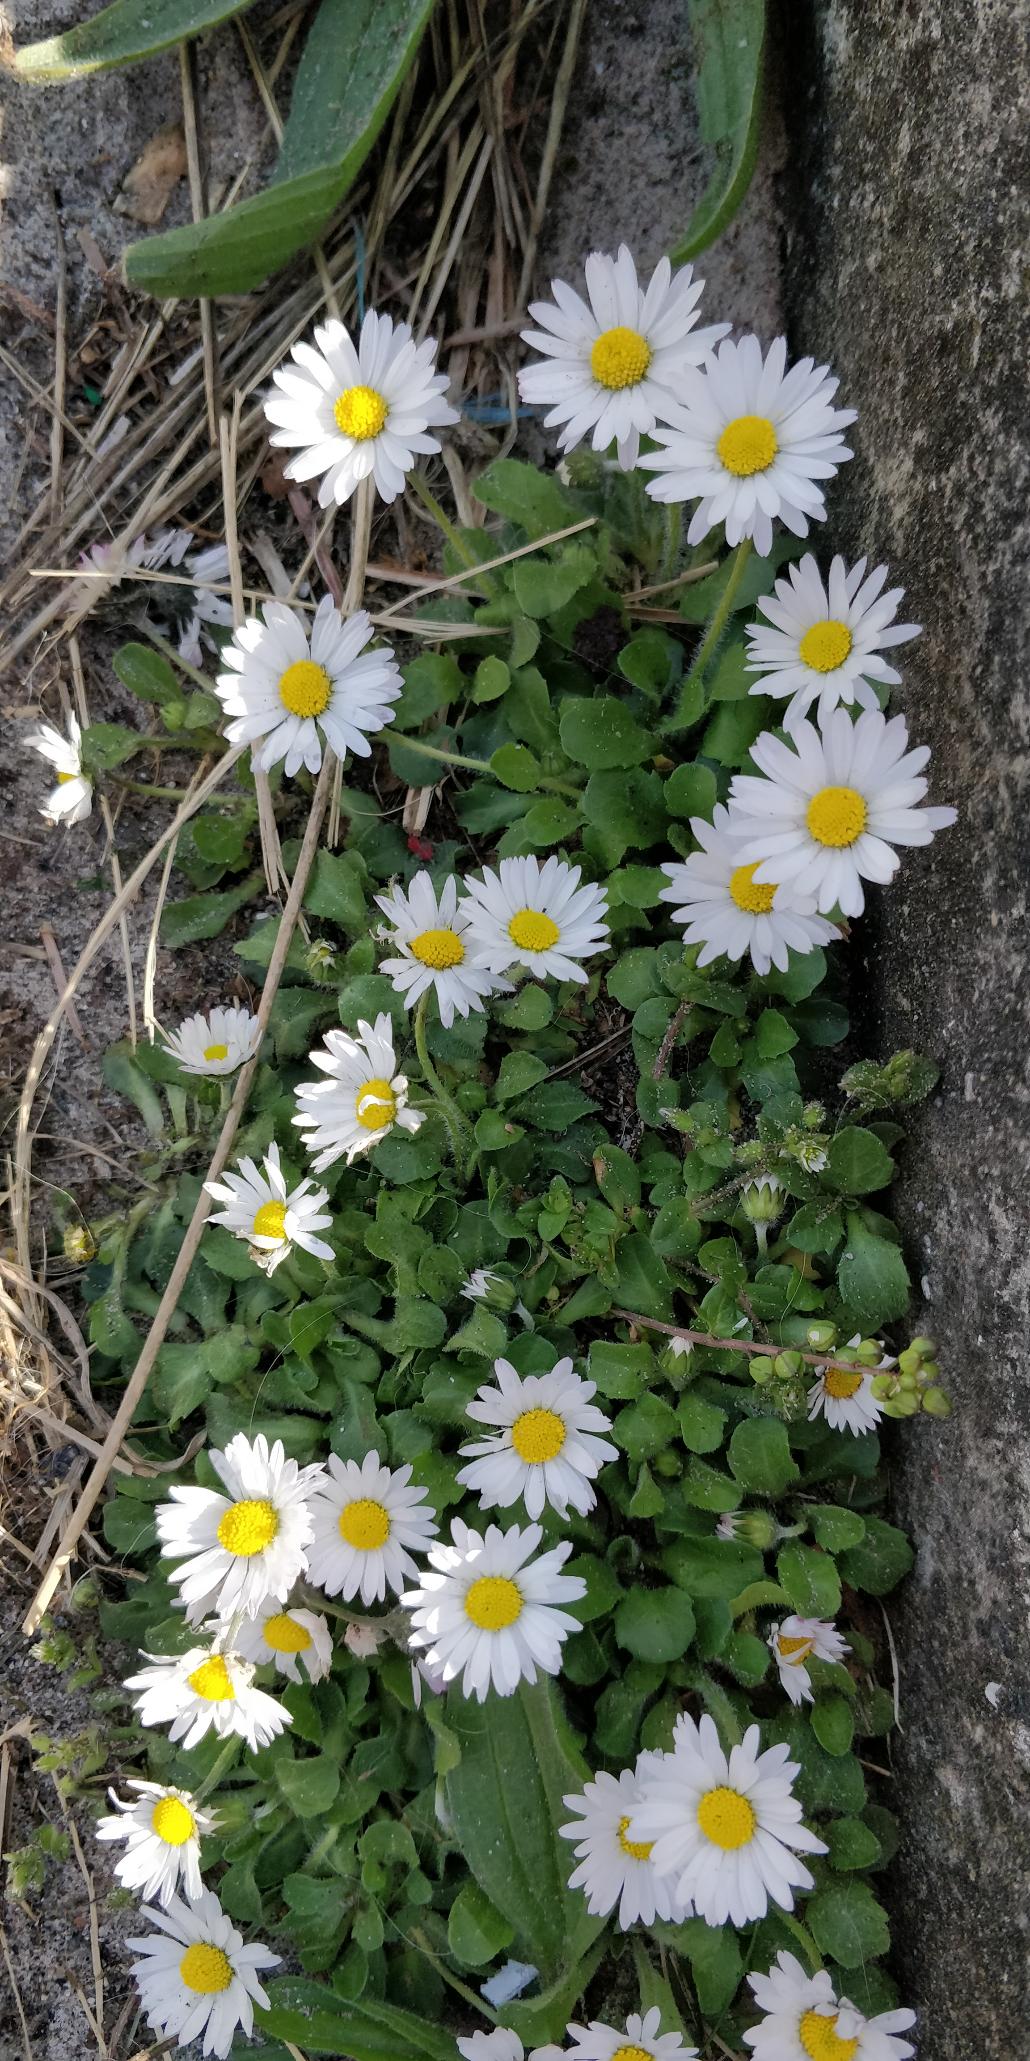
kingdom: Plantae
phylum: Tracheophyta
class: Magnoliopsida
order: Asterales
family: Asteraceae
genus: Bellis
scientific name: Bellis perennis
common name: Tusindfryd
